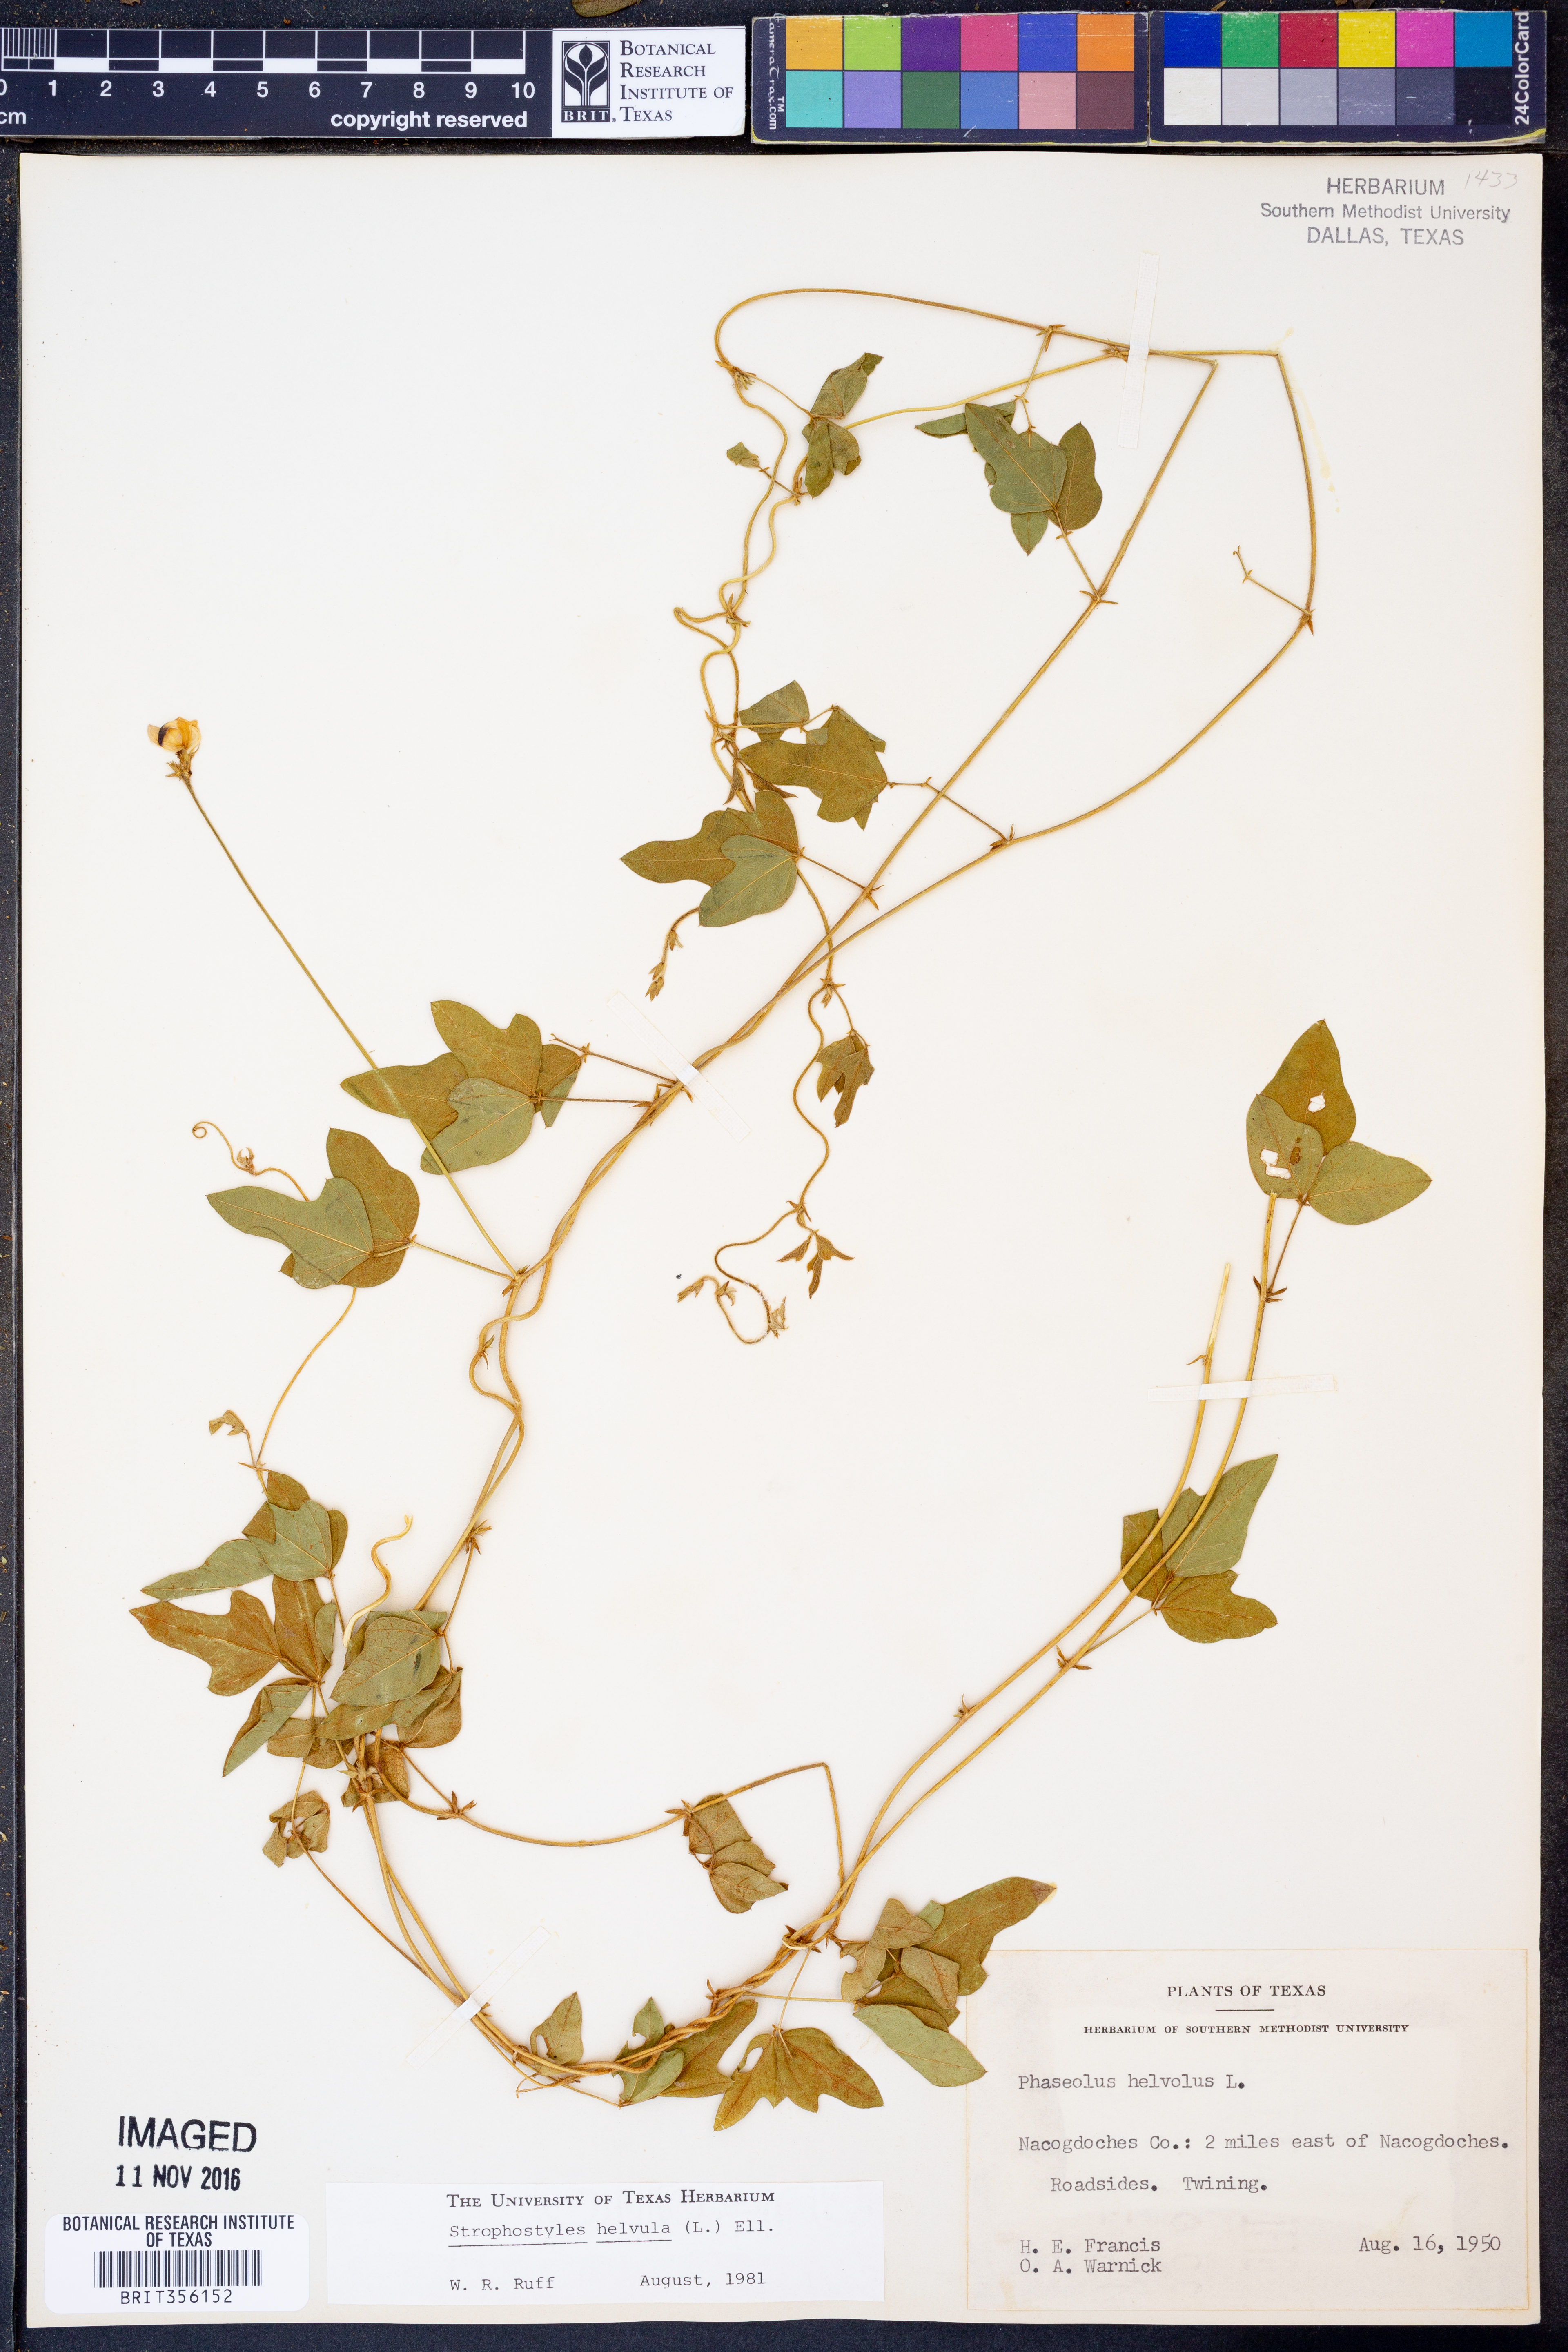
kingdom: Plantae
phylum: Tracheophyta
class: Magnoliopsida
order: Fabales
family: Fabaceae
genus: Strophostyles
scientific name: Strophostyles helvula
